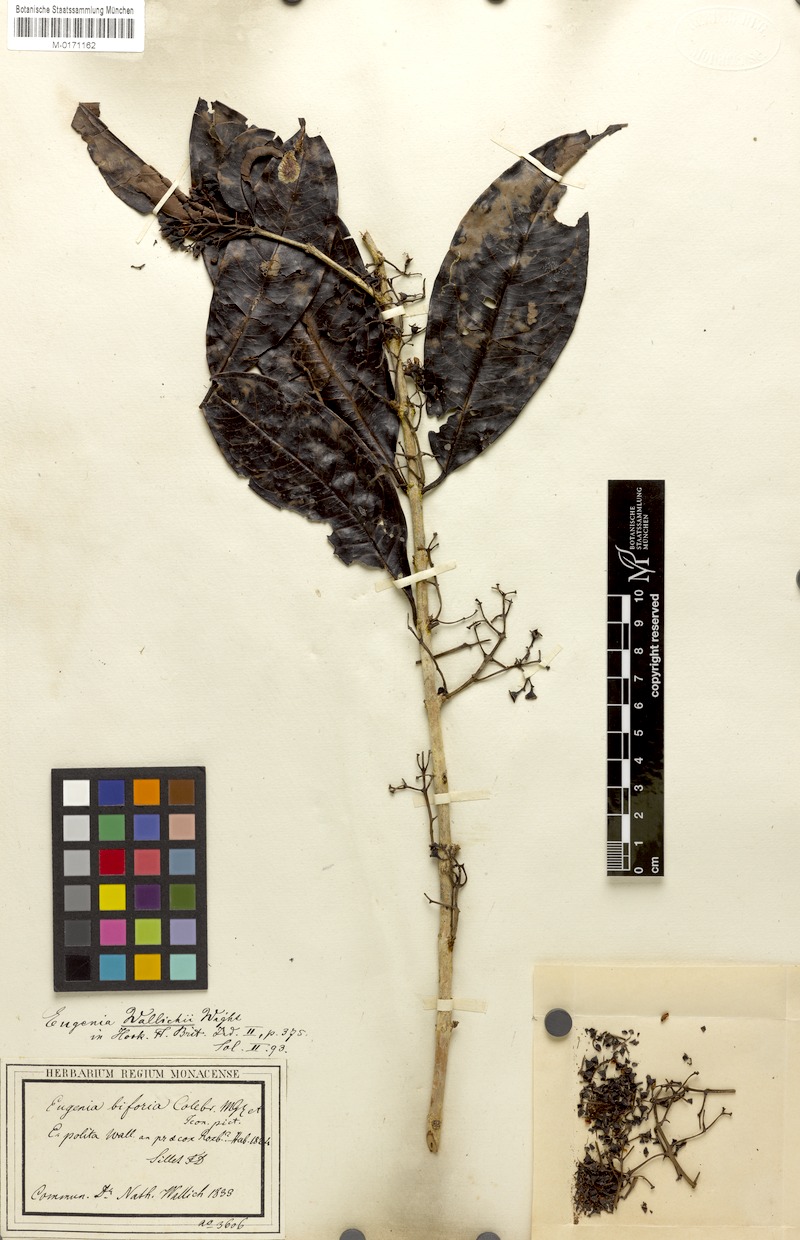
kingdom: Plantae
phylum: Tracheophyta
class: Magnoliopsida
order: Myrtales
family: Myrtaceae
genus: Syzygium
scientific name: Syzygium praecox
